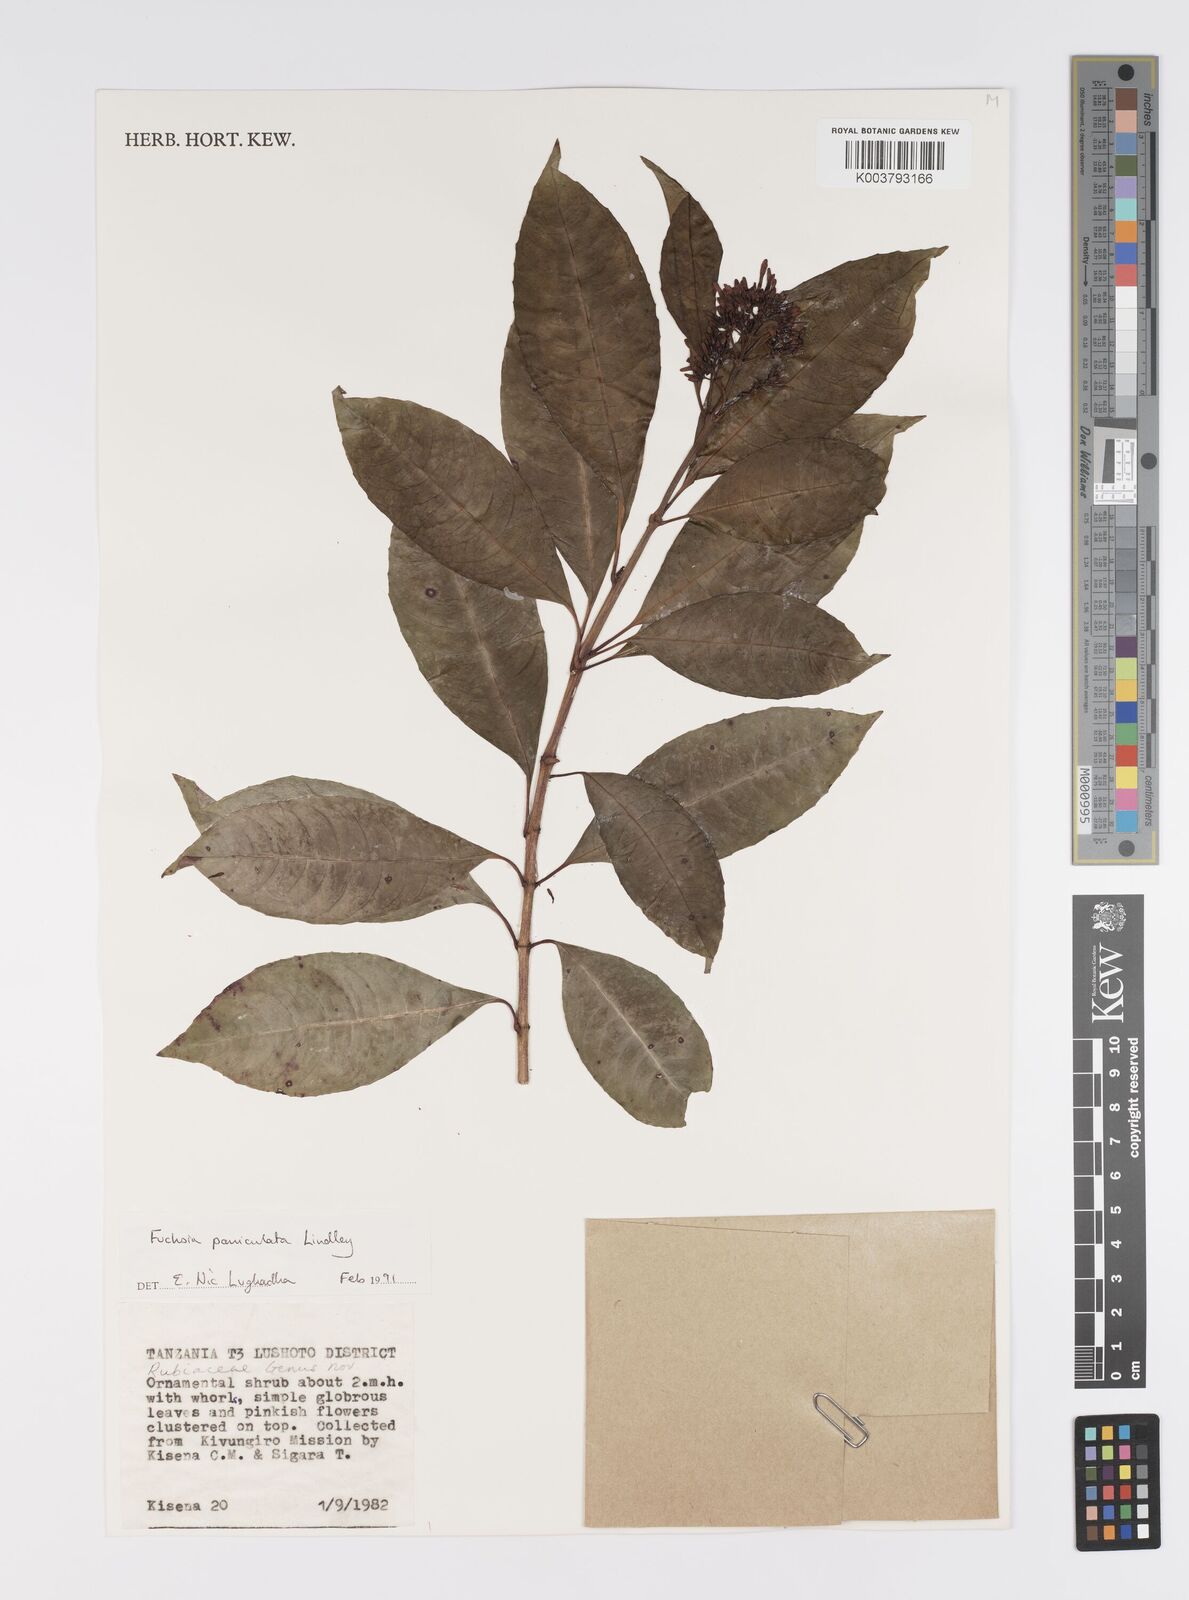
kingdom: Plantae
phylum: Tracheophyta
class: Magnoliopsida
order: Myrtales
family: Onagraceae
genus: Fuchsia
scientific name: Fuchsia paniculata
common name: Shrubby fuchsia
